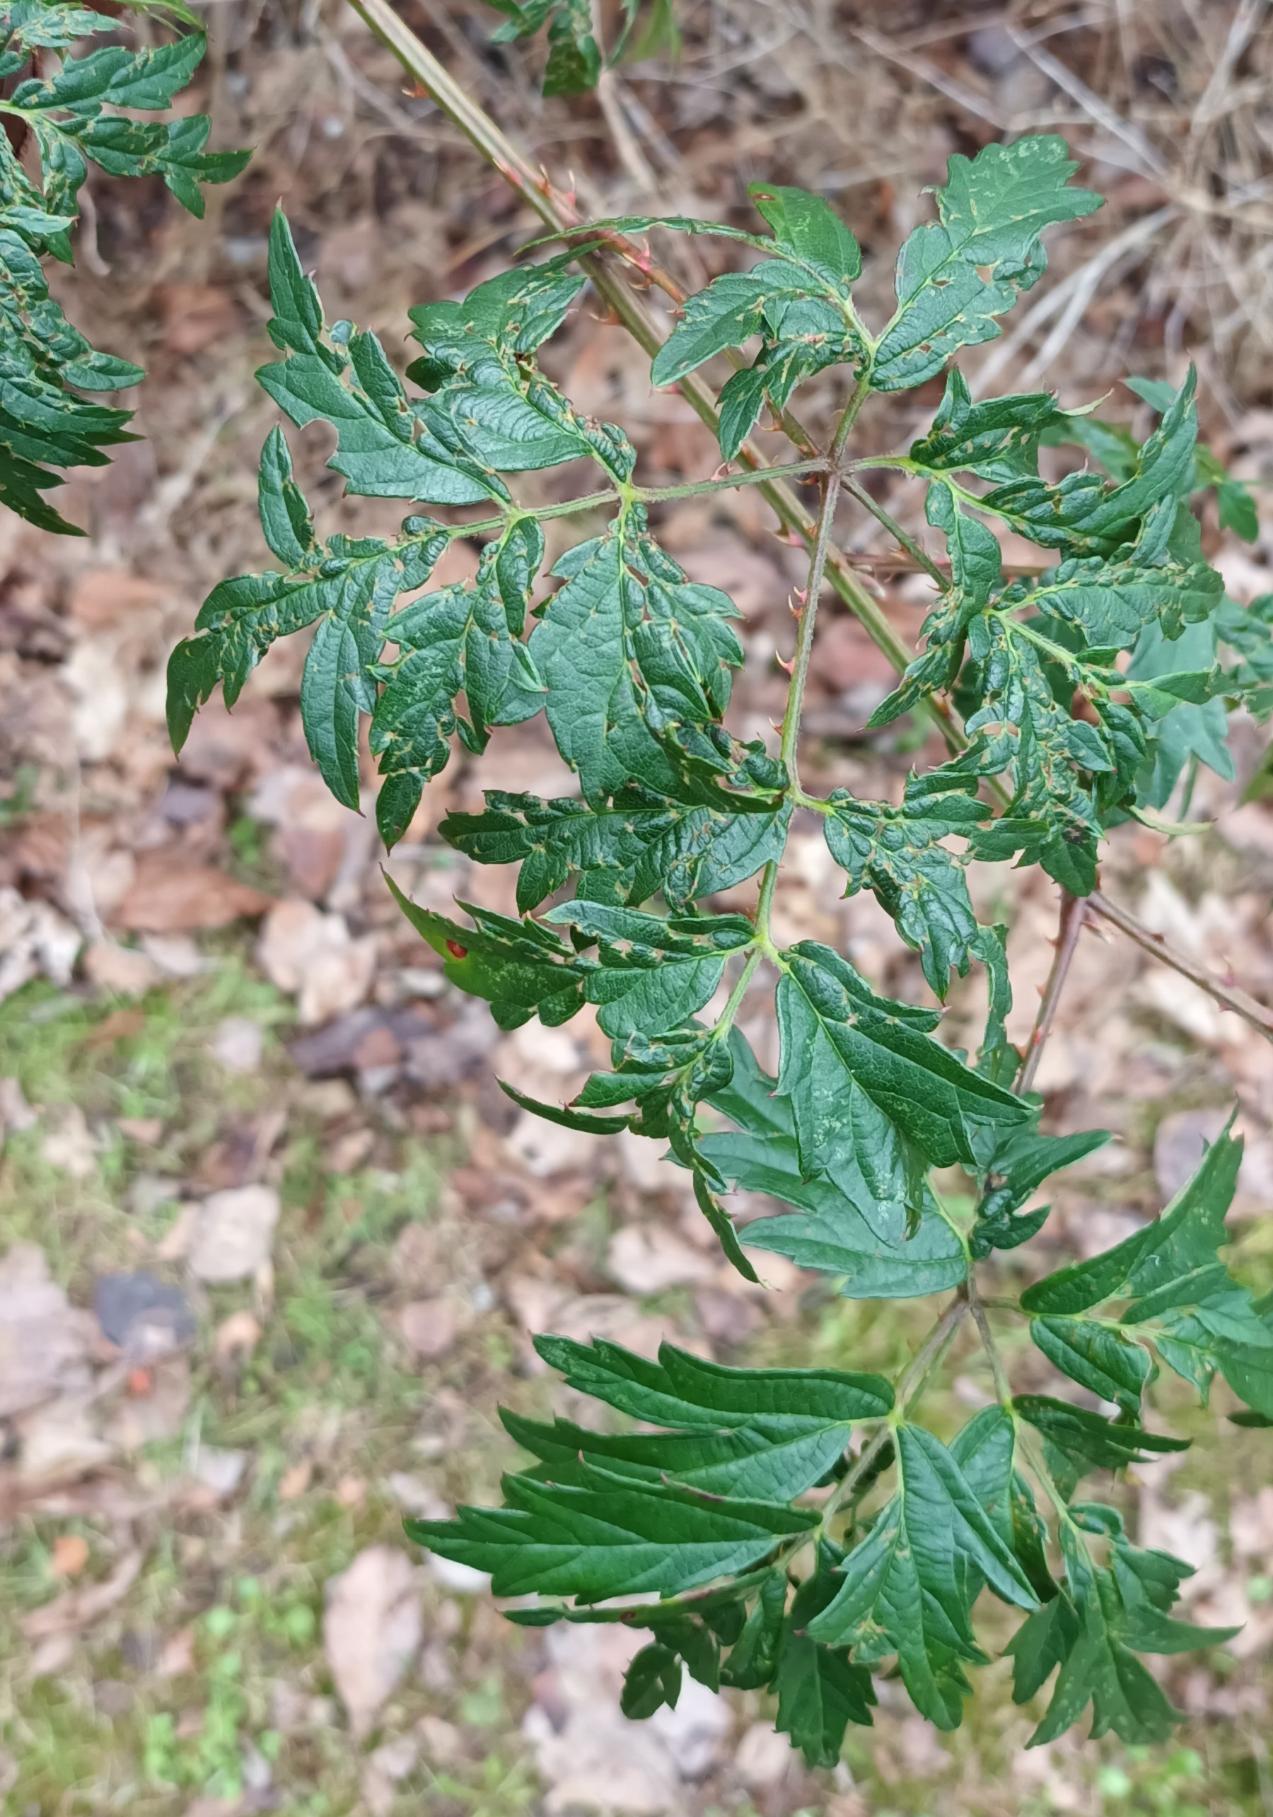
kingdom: Plantae
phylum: Tracheophyta
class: Magnoliopsida
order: Rosales
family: Rosaceae
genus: Rubus
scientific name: Rubus laciniatus
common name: Fliget brombær
